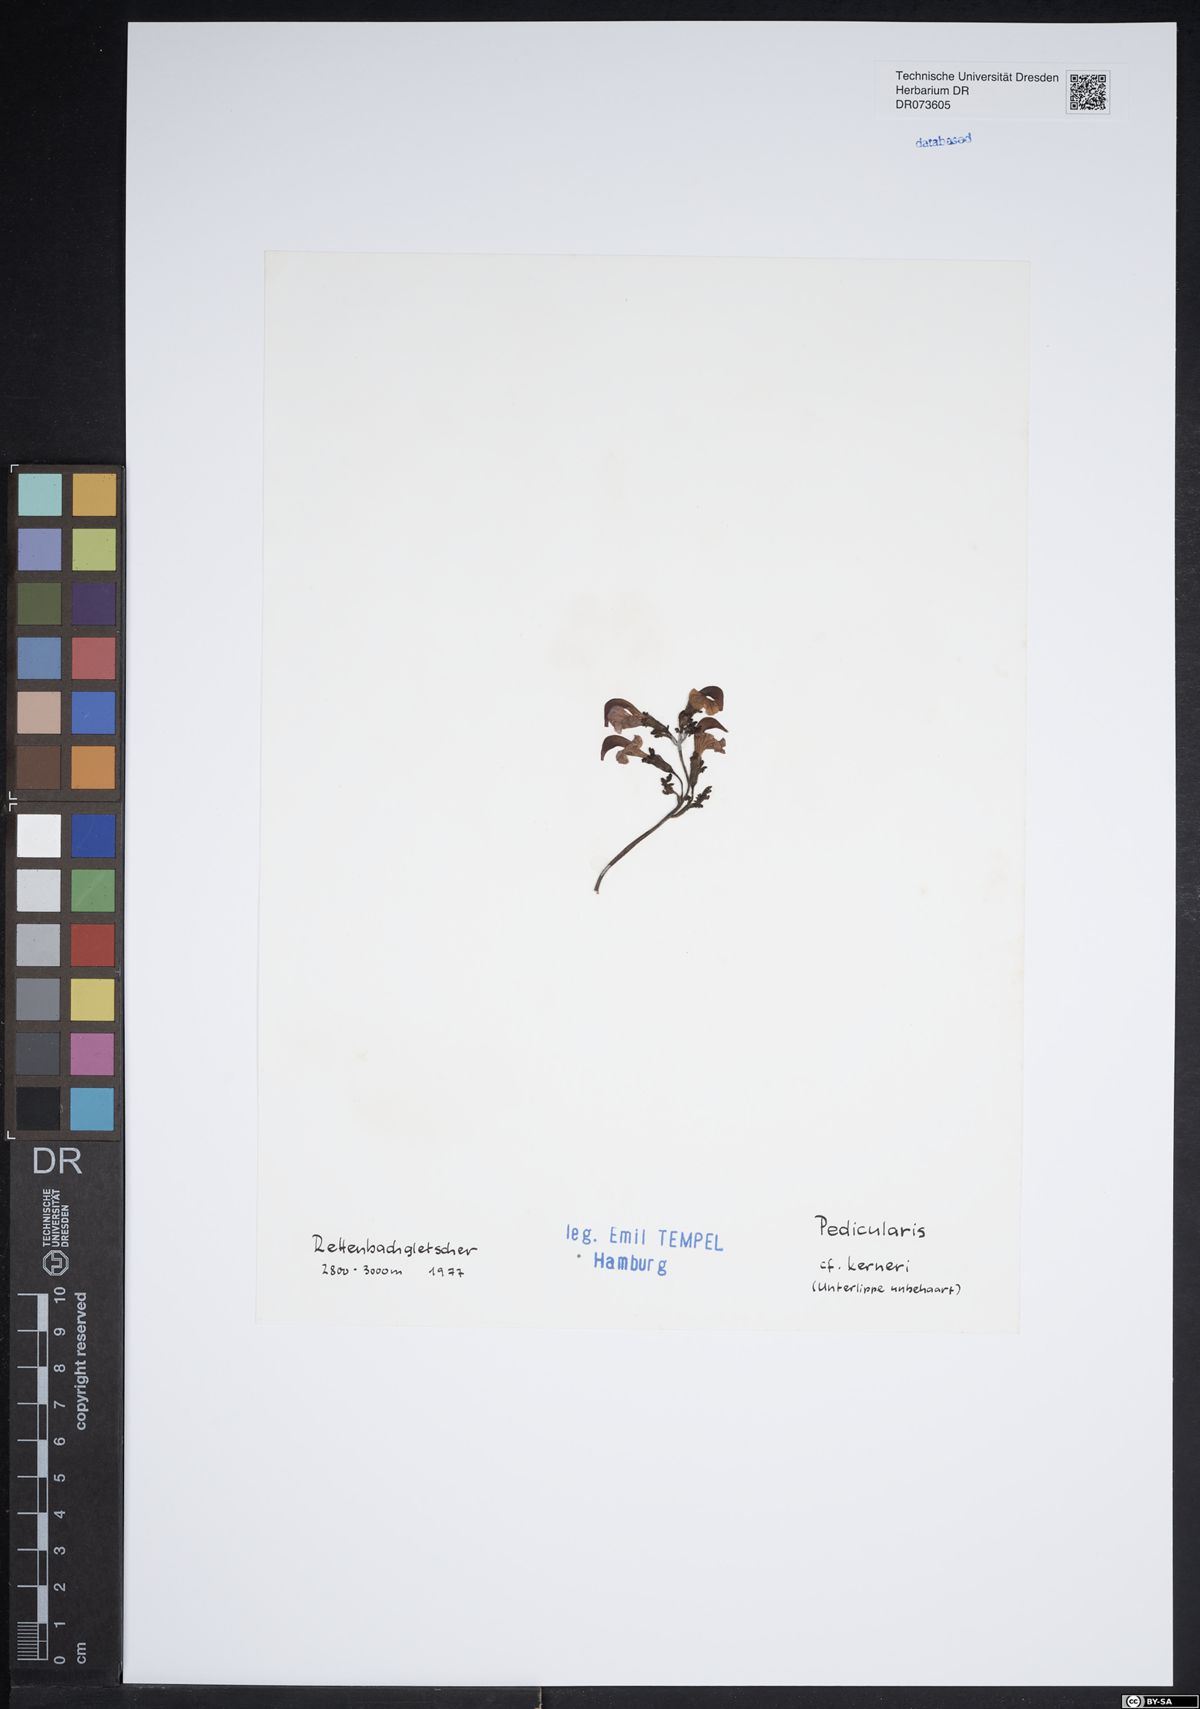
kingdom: Plantae
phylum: Tracheophyta
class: Magnoliopsida
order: Lamiales
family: Orobanchaceae
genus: Pedicularis
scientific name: Pedicularis kerneri
